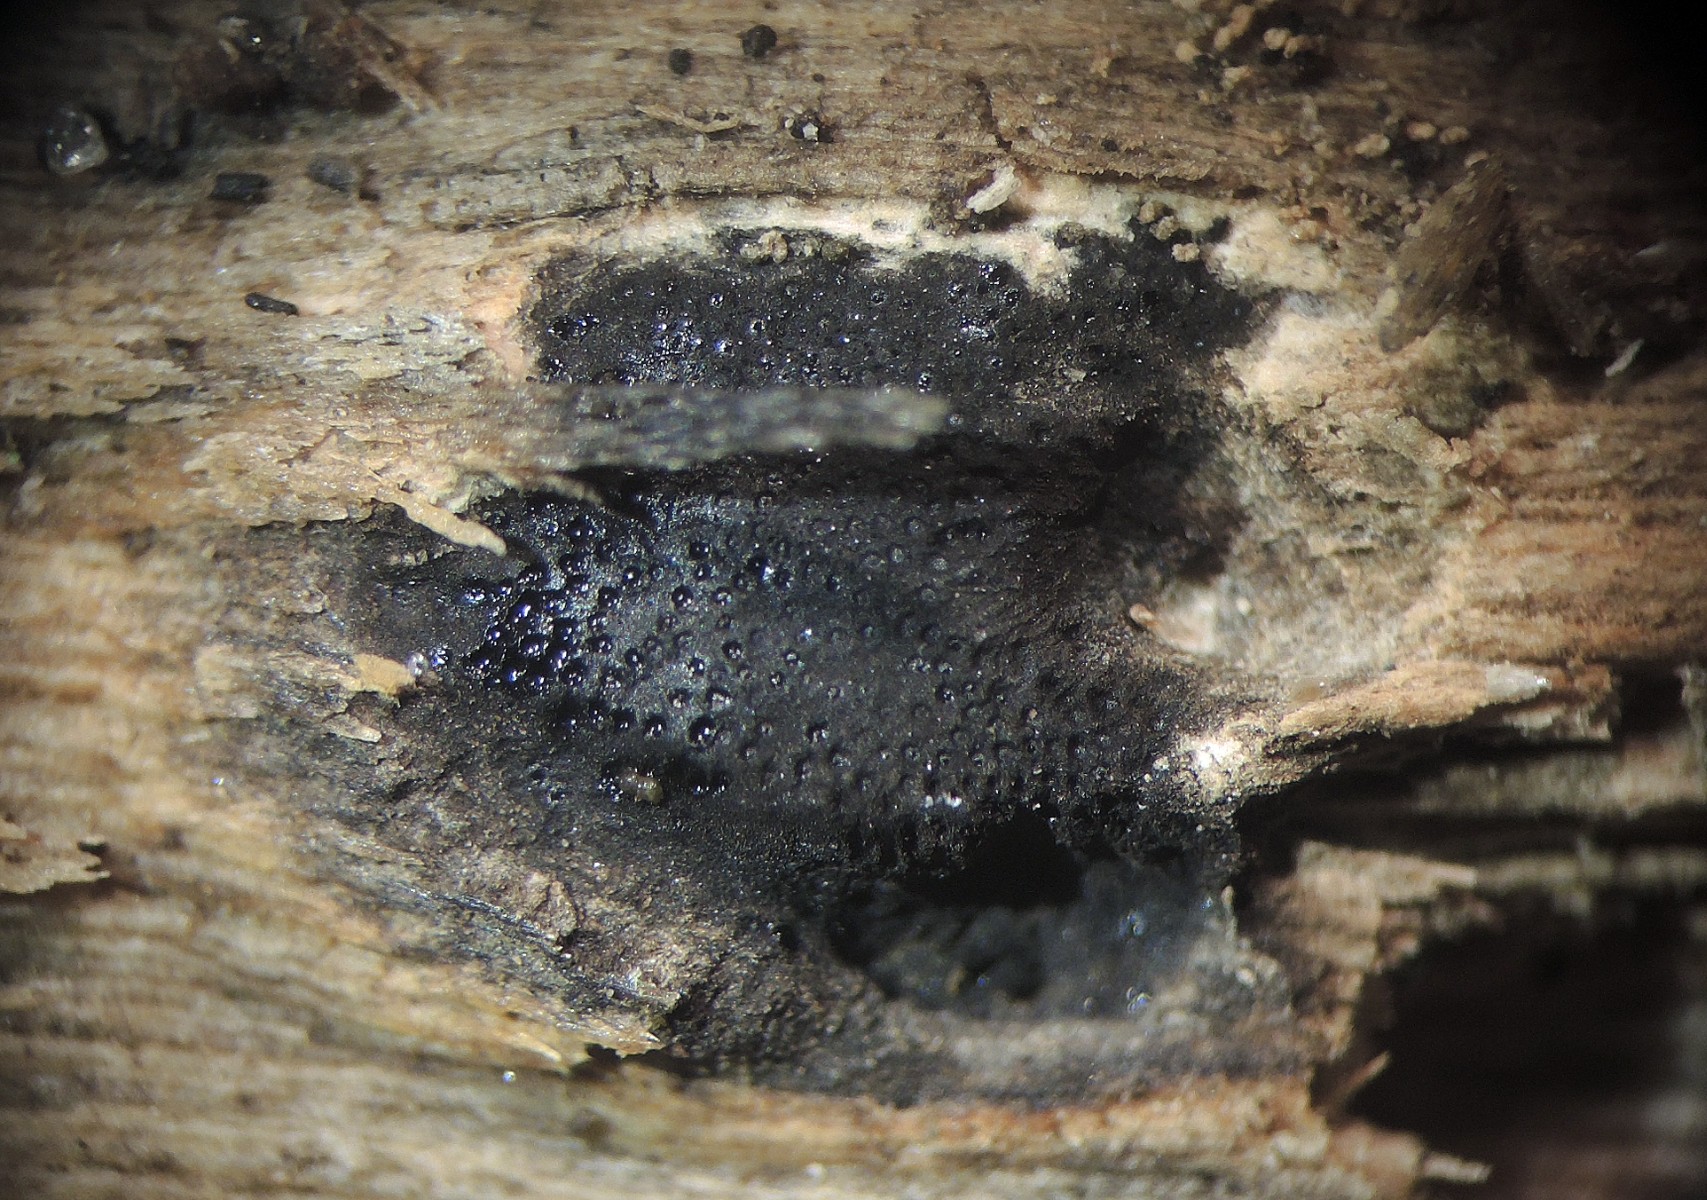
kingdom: Fungi
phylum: Ascomycota
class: Sordariomycetes
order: Boliniales
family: Boliniaceae
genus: Camaropella
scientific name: Camaropella plana
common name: flad kulsnegl
